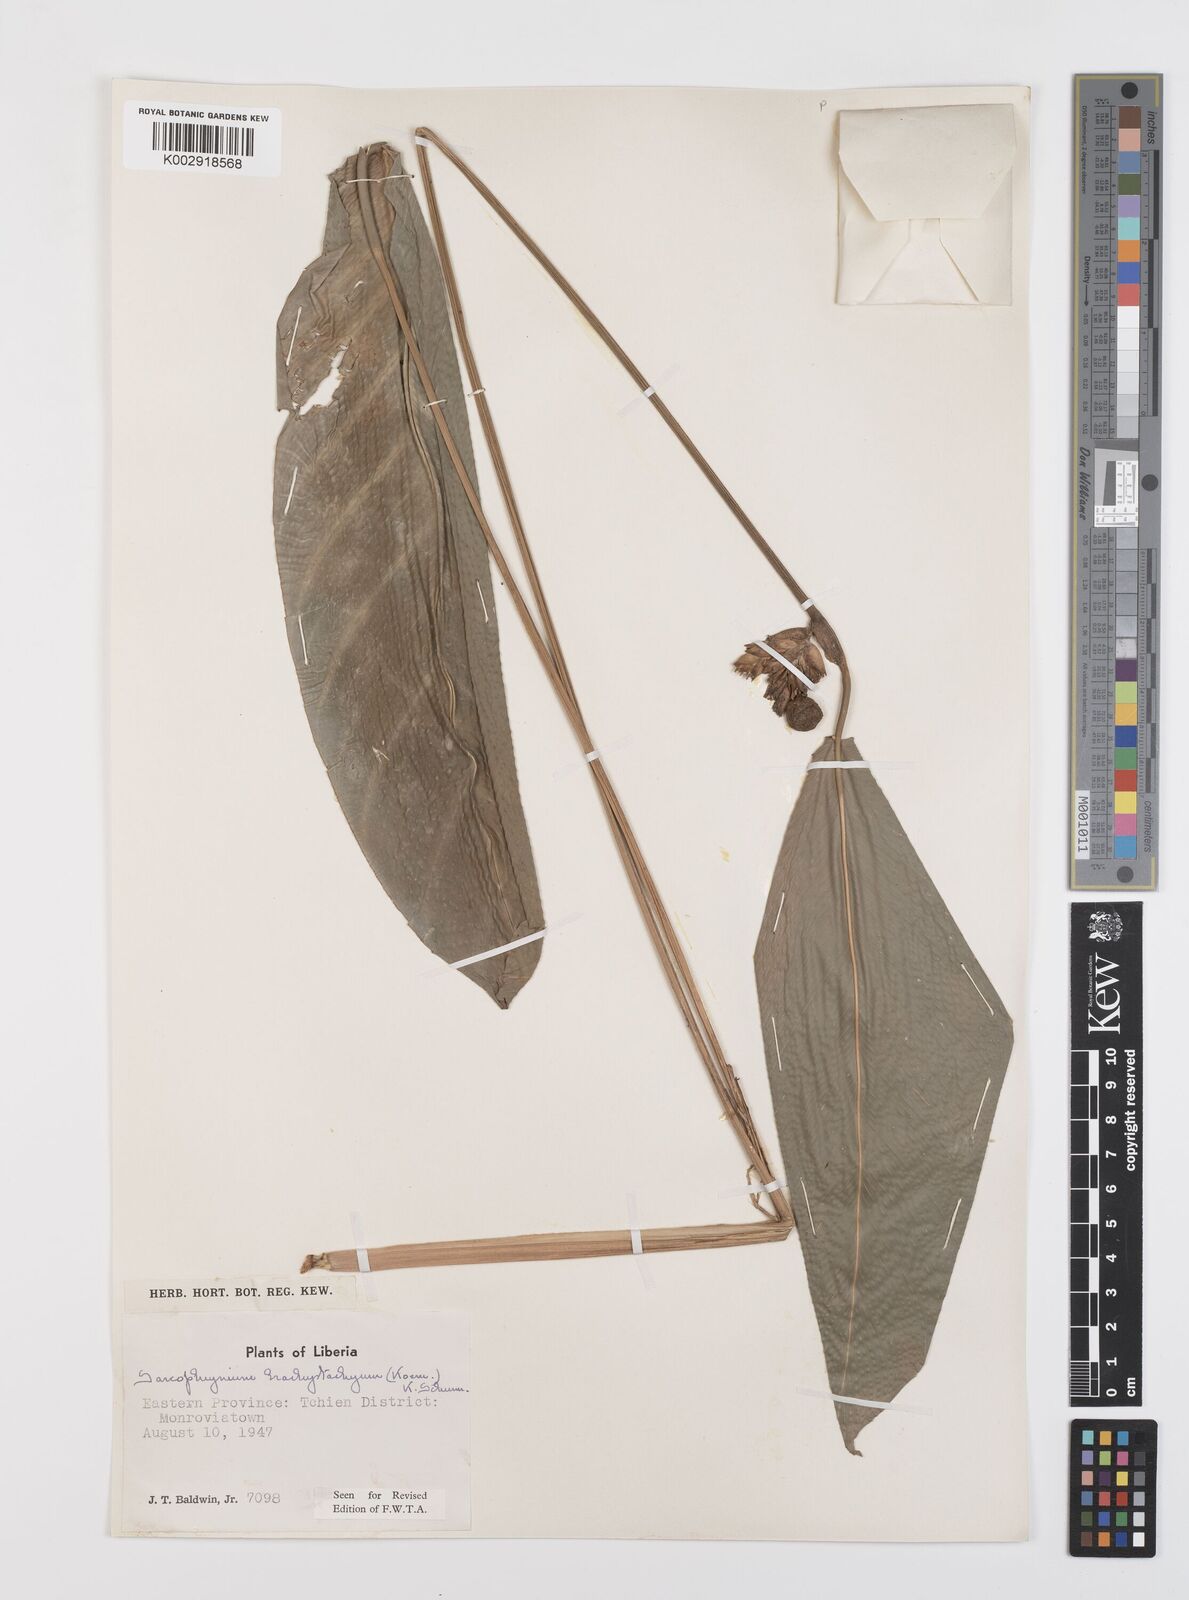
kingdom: Plantae
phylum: Tracheophyta
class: Liliopsida
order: Zingiberales
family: Marantaceae
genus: Sarcophrynium
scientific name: Sarcophrynium brachystachyum
